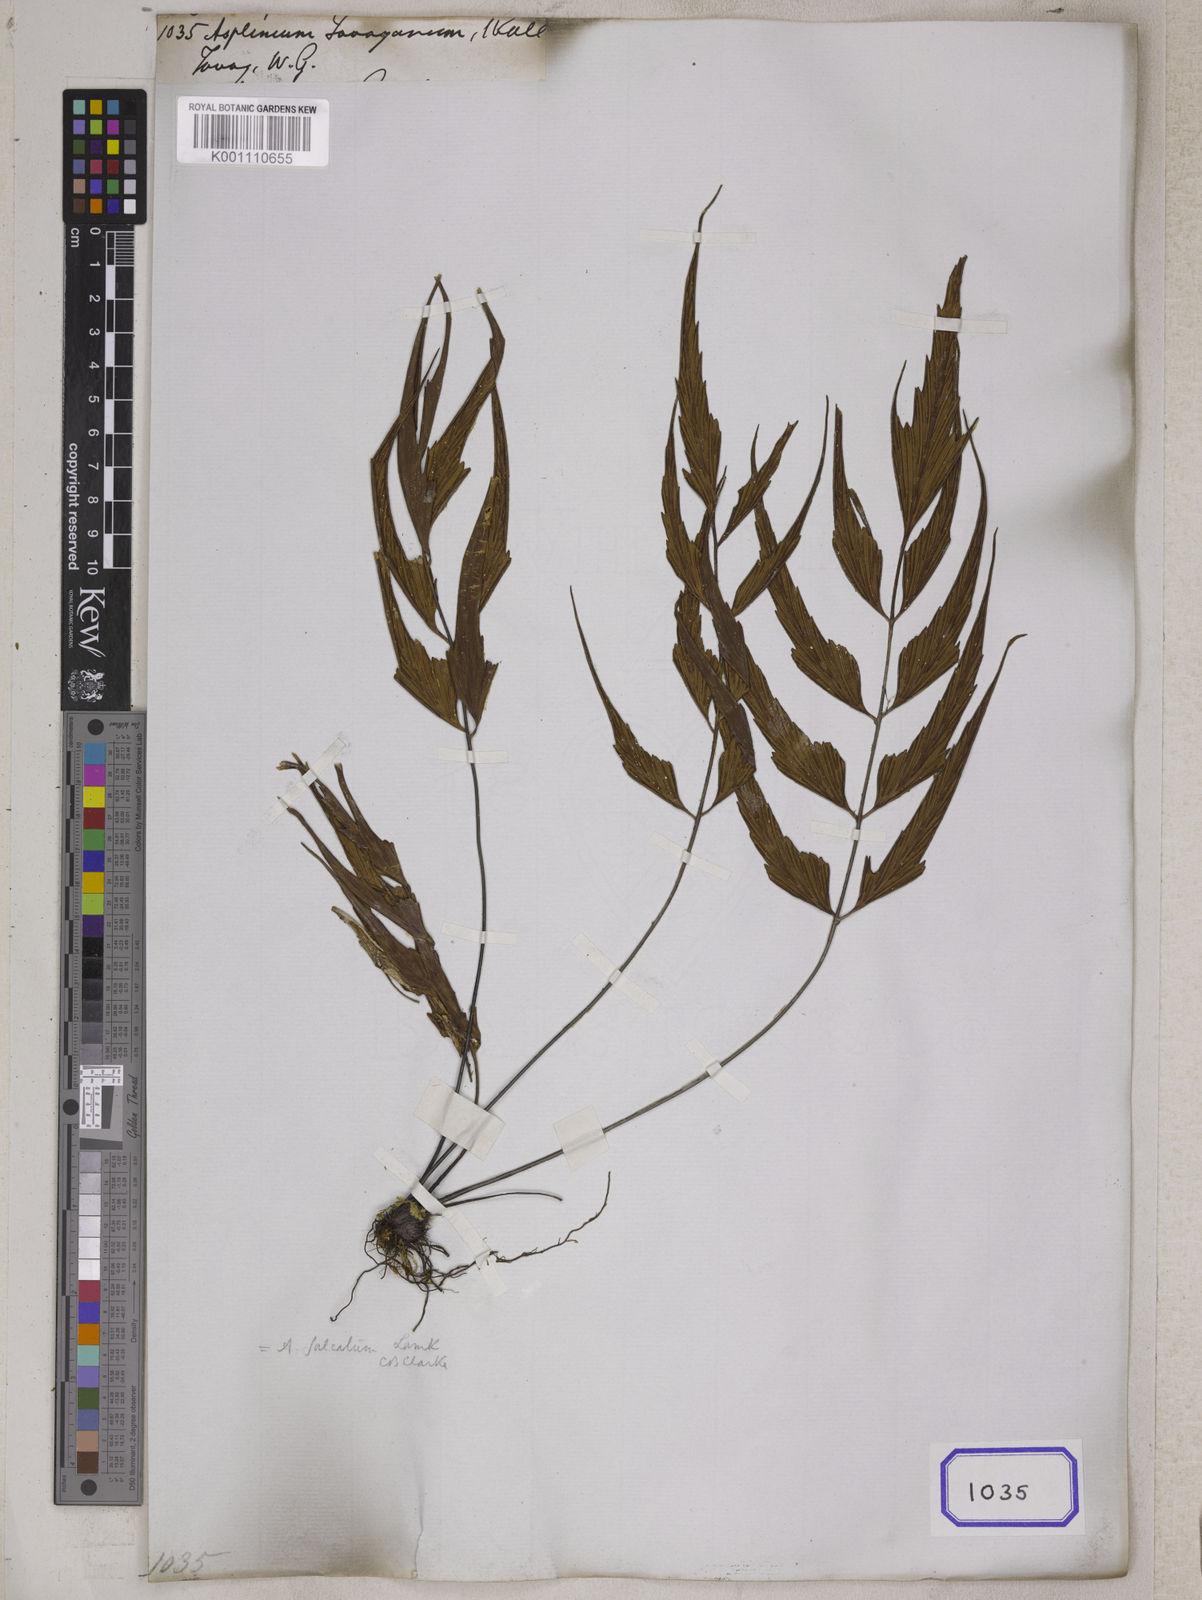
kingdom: Plantae
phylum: Tracheophyta
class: Polypodiopsida
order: Polypodiales
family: Aspleniaceae
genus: Asplenium
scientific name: Asplenium simile
